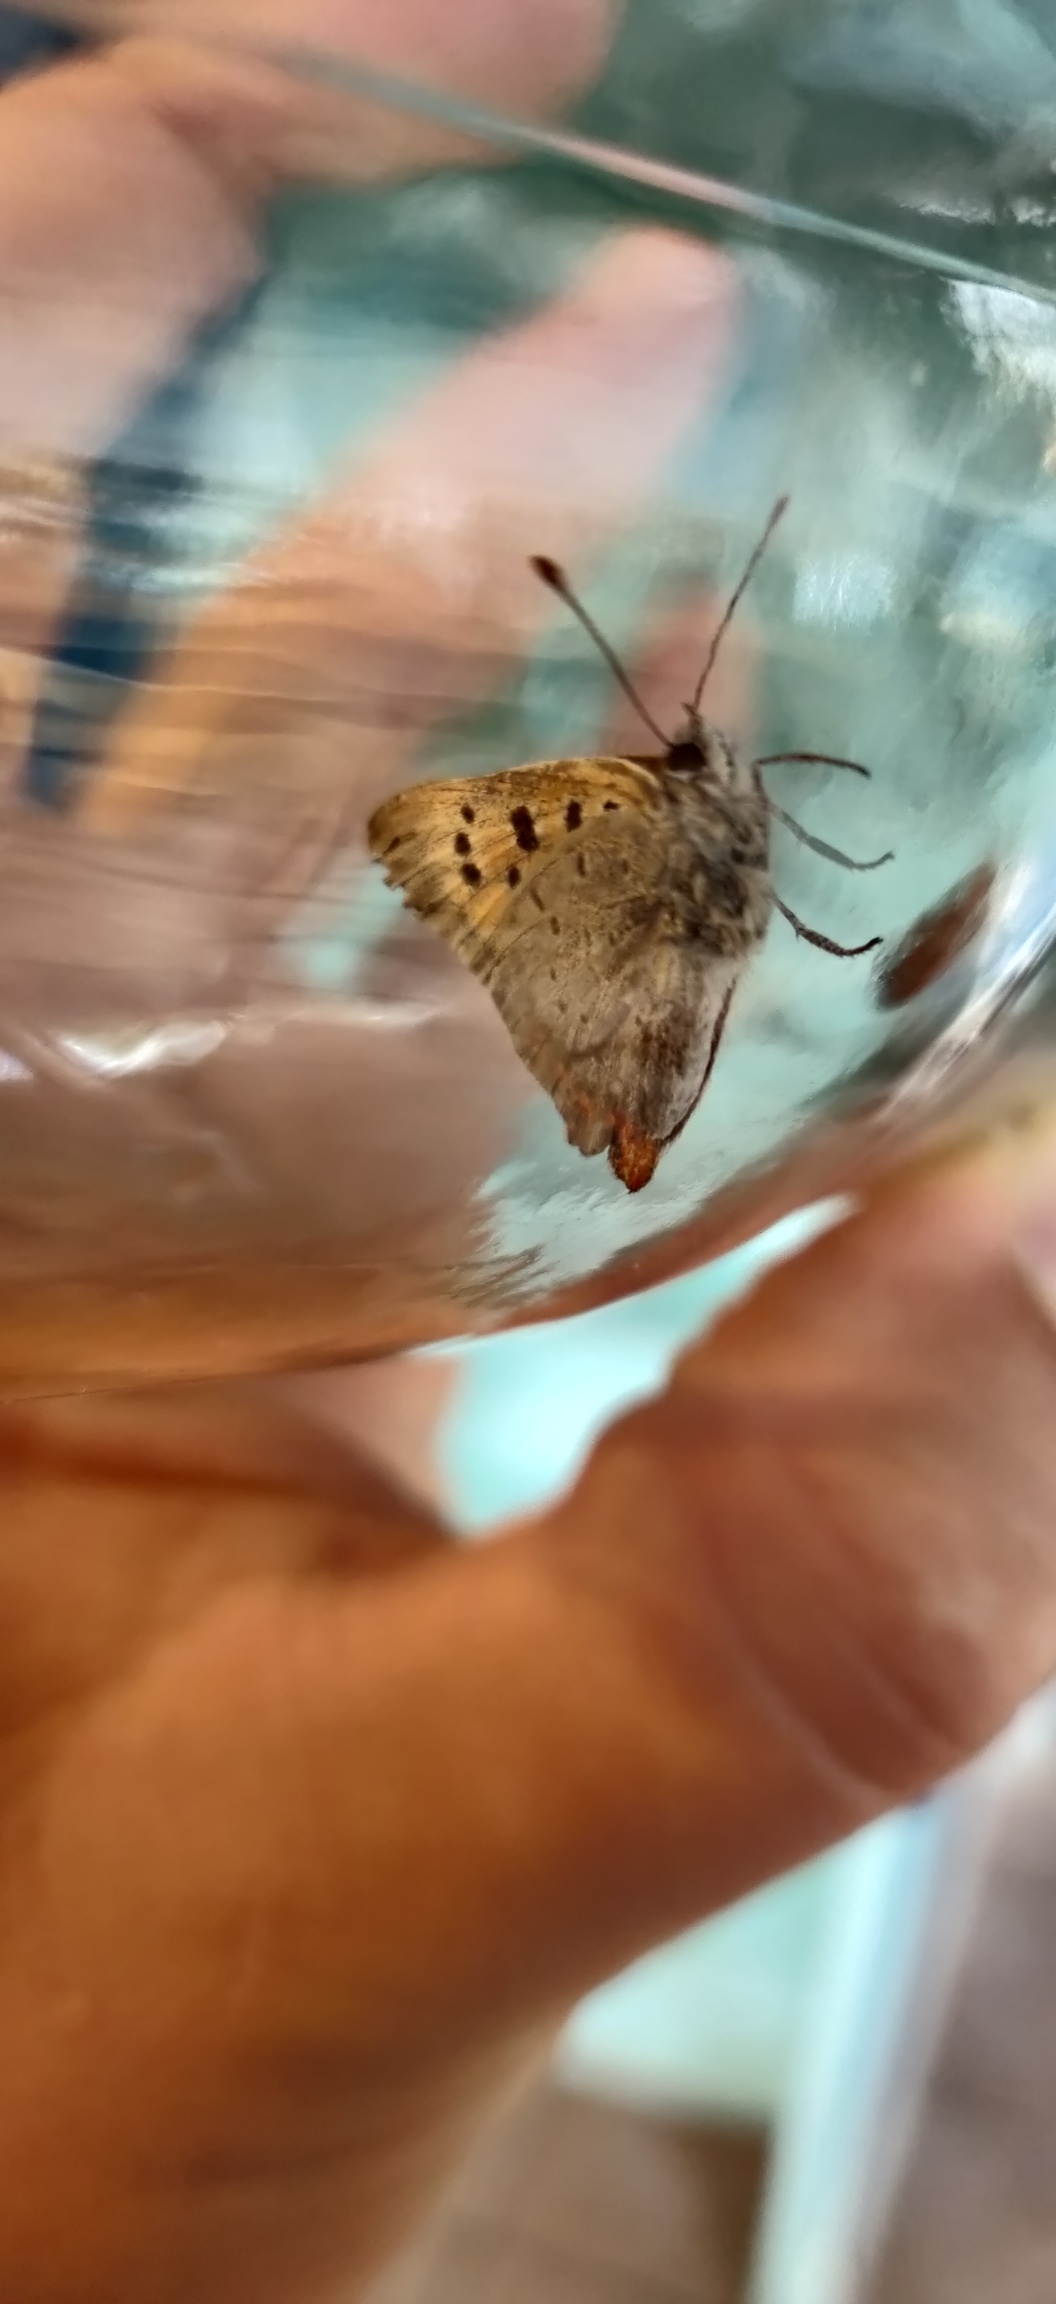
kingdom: Animalia
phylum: Arthropoda
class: Insecta
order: Lepidoptera
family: Lycaenidae
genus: Lycaena
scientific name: Lycaena phlaeas
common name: Lille ildfugl
